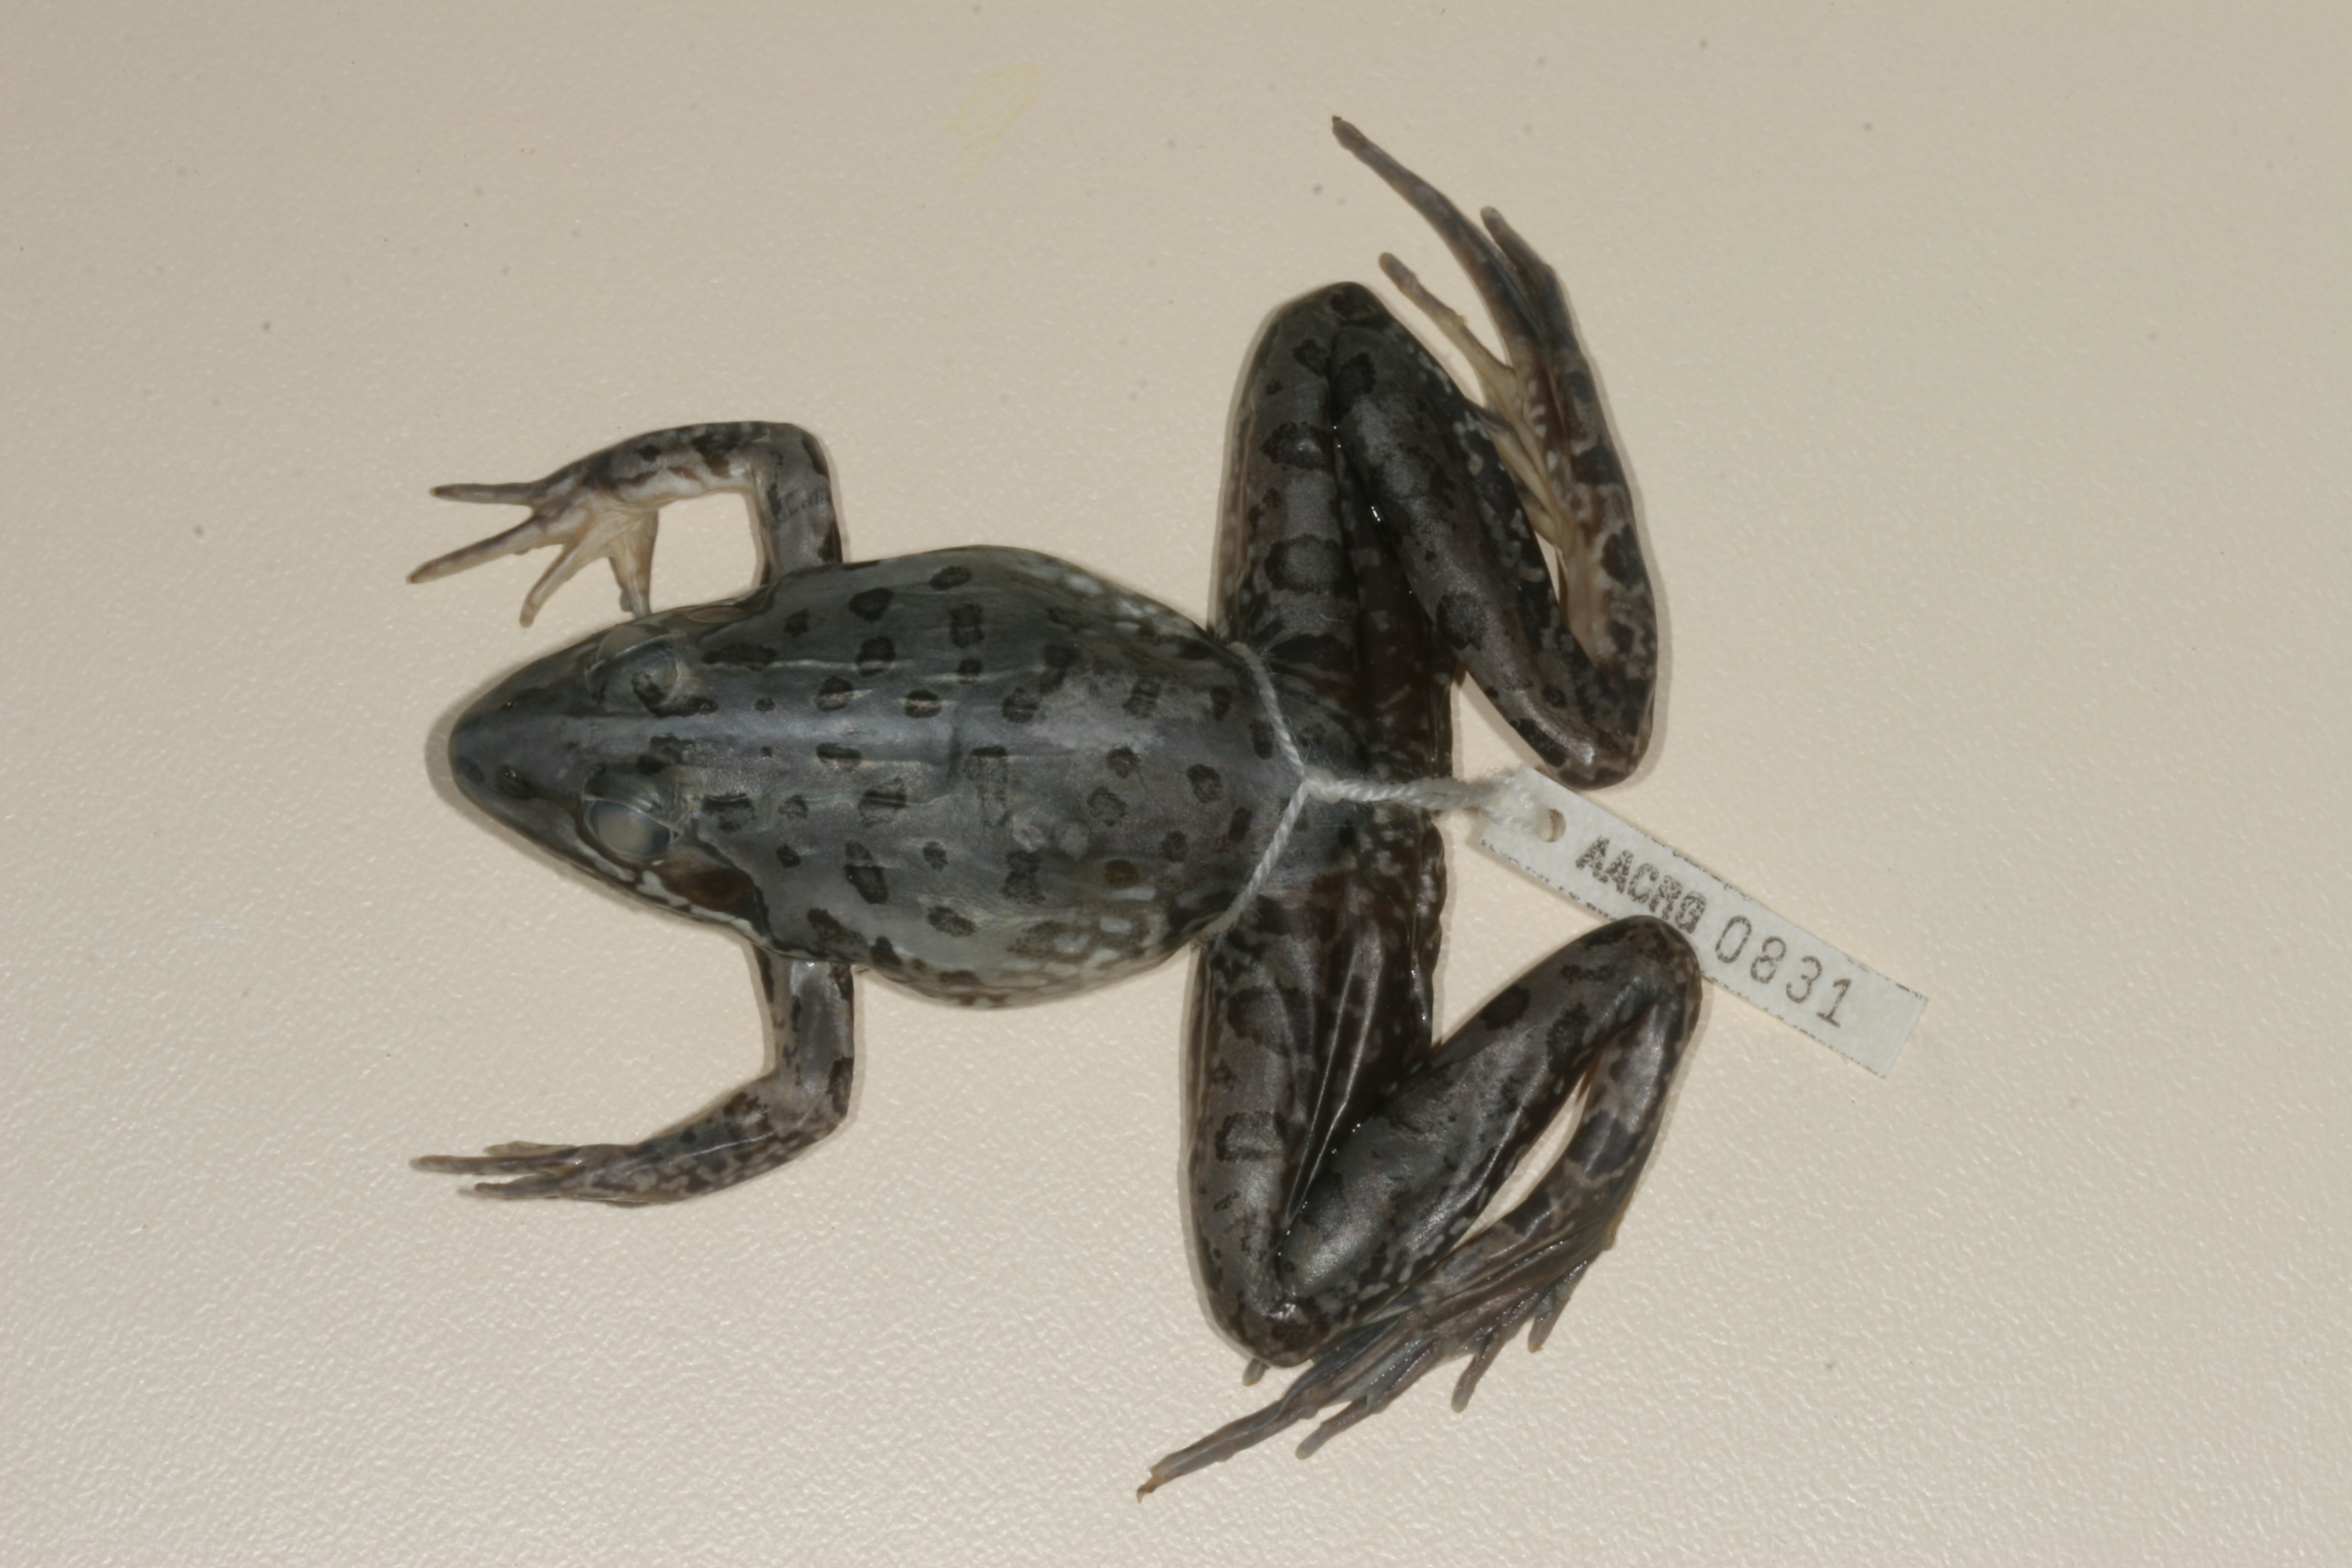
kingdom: Animalia
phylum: Chordata
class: Amphibia
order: Anura
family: Pyxicephalidae
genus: Amietia
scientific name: Amietia fuscigula
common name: Cape rana
